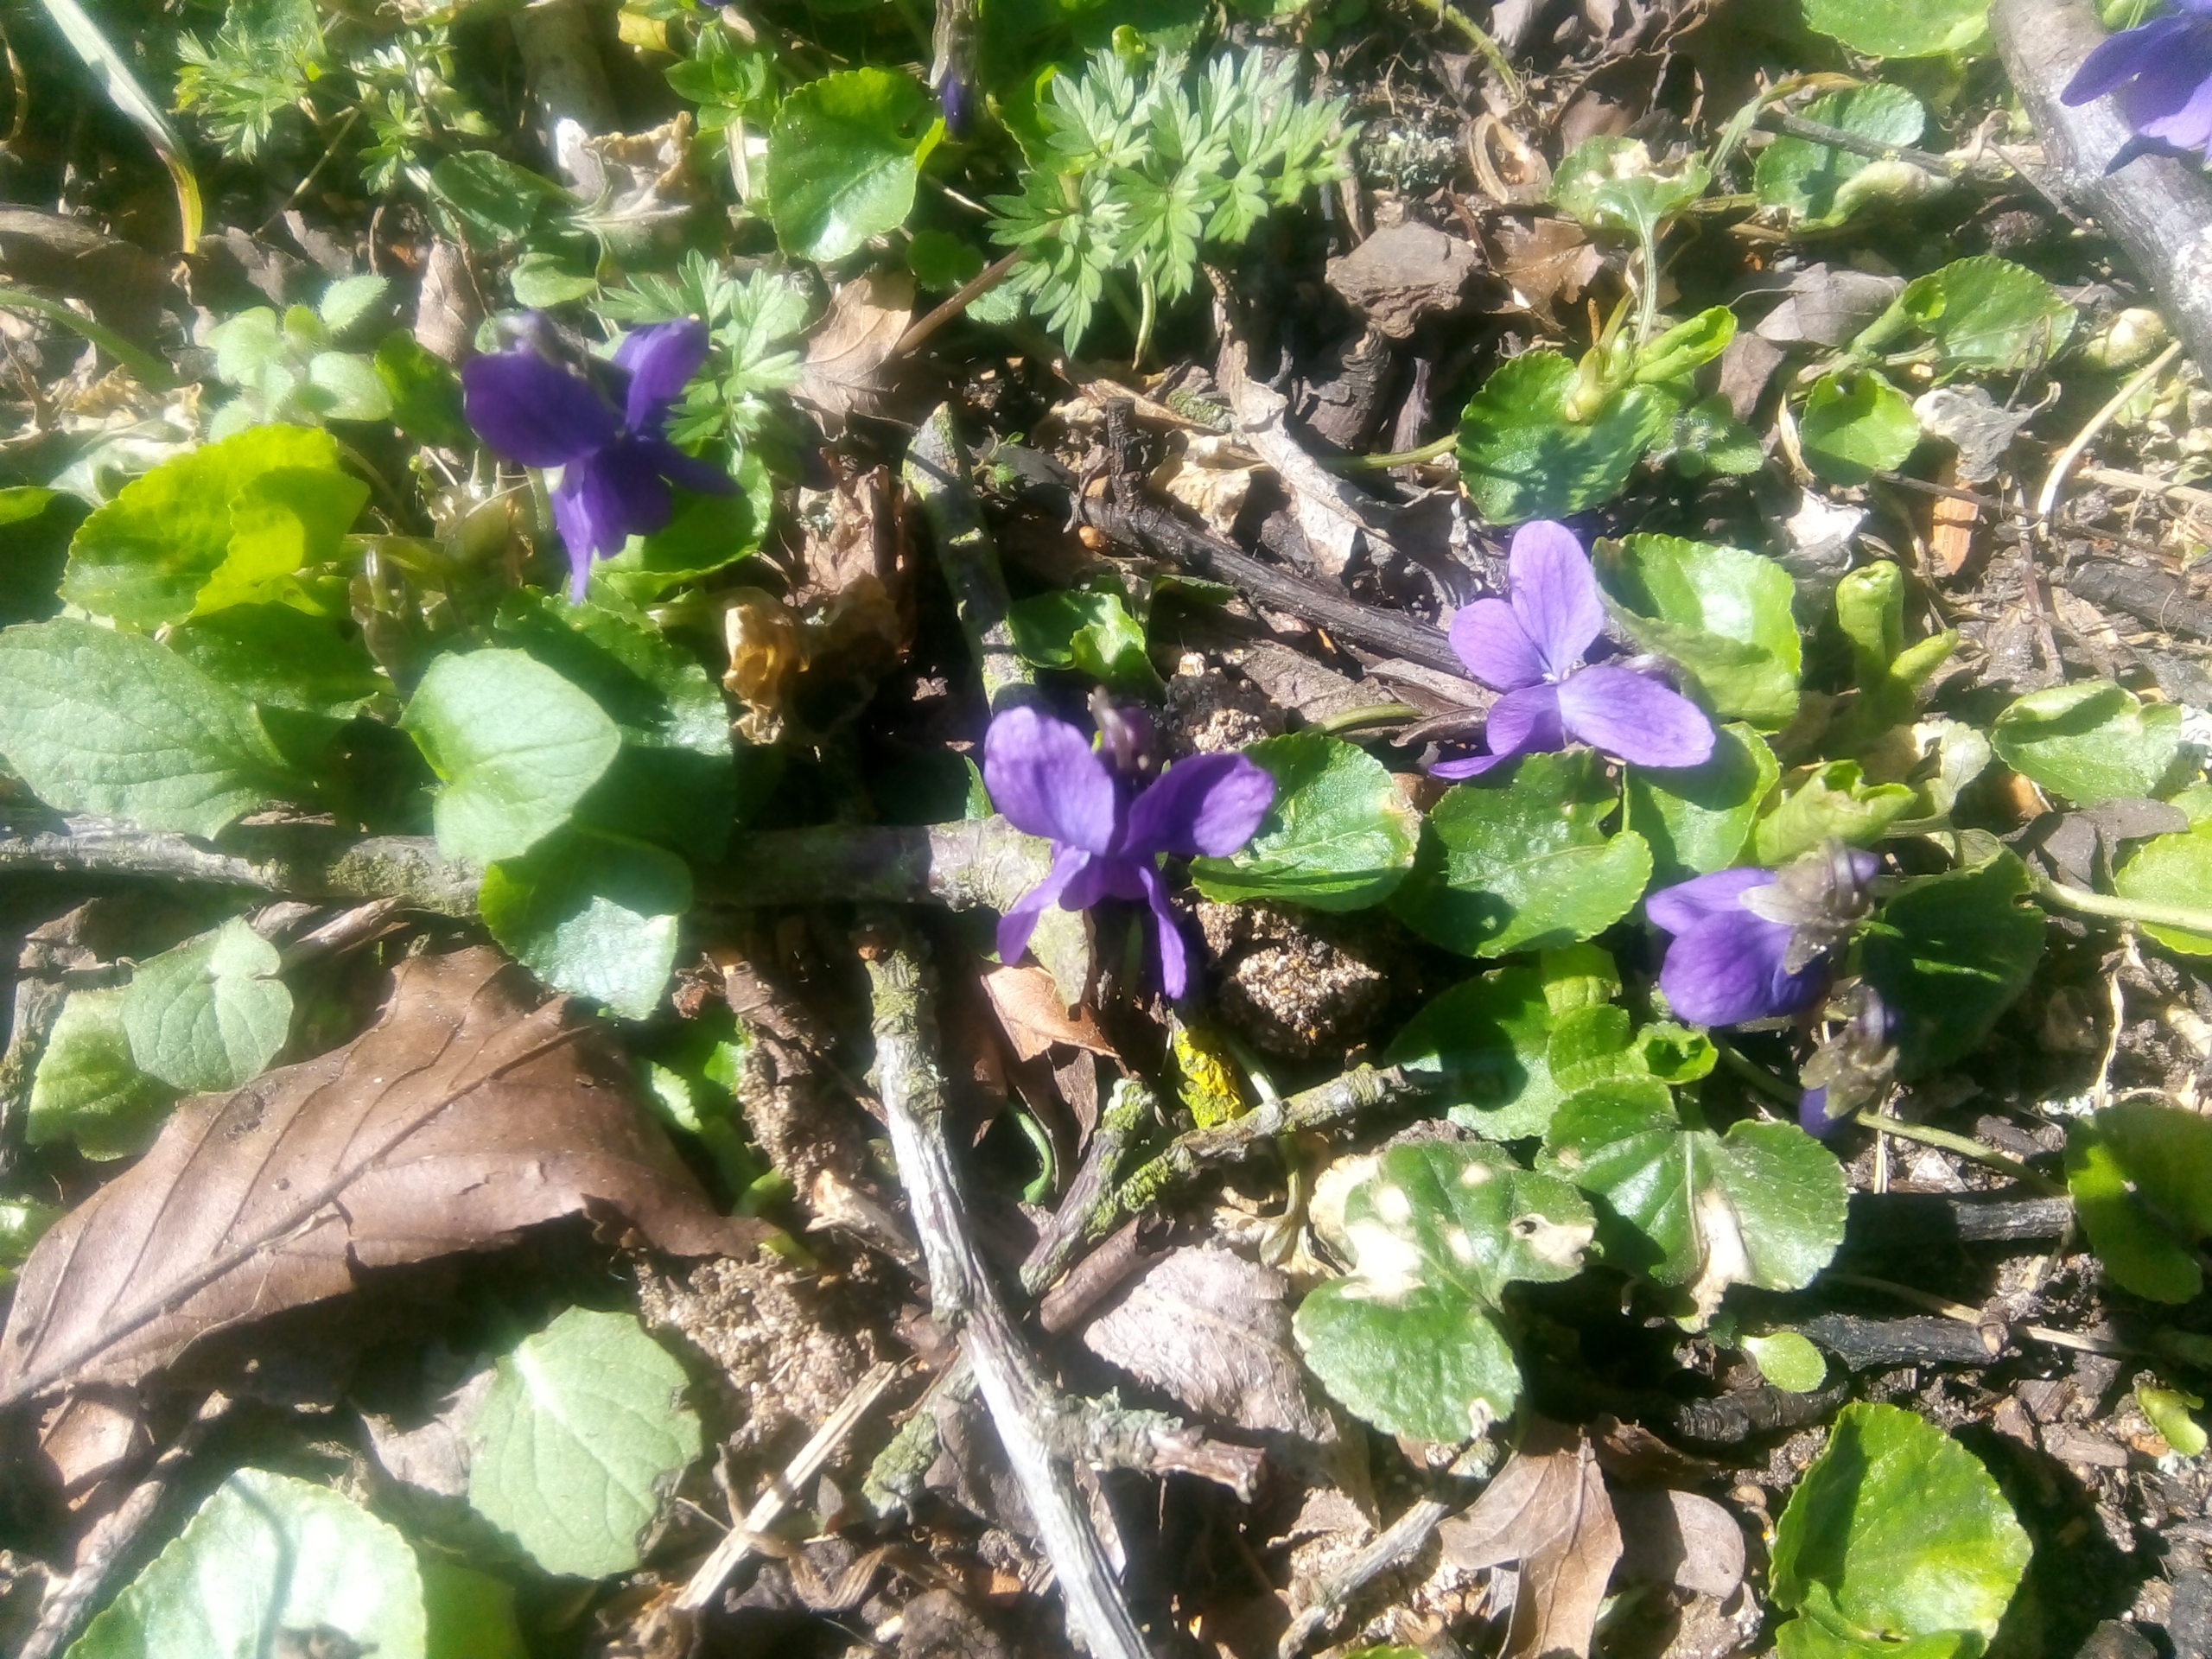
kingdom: Plantae
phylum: Tracheophyta
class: Magnoliopsida
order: Malpighiales
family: Violaceae
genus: Viola
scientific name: Viola odorata
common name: Marts-viol
